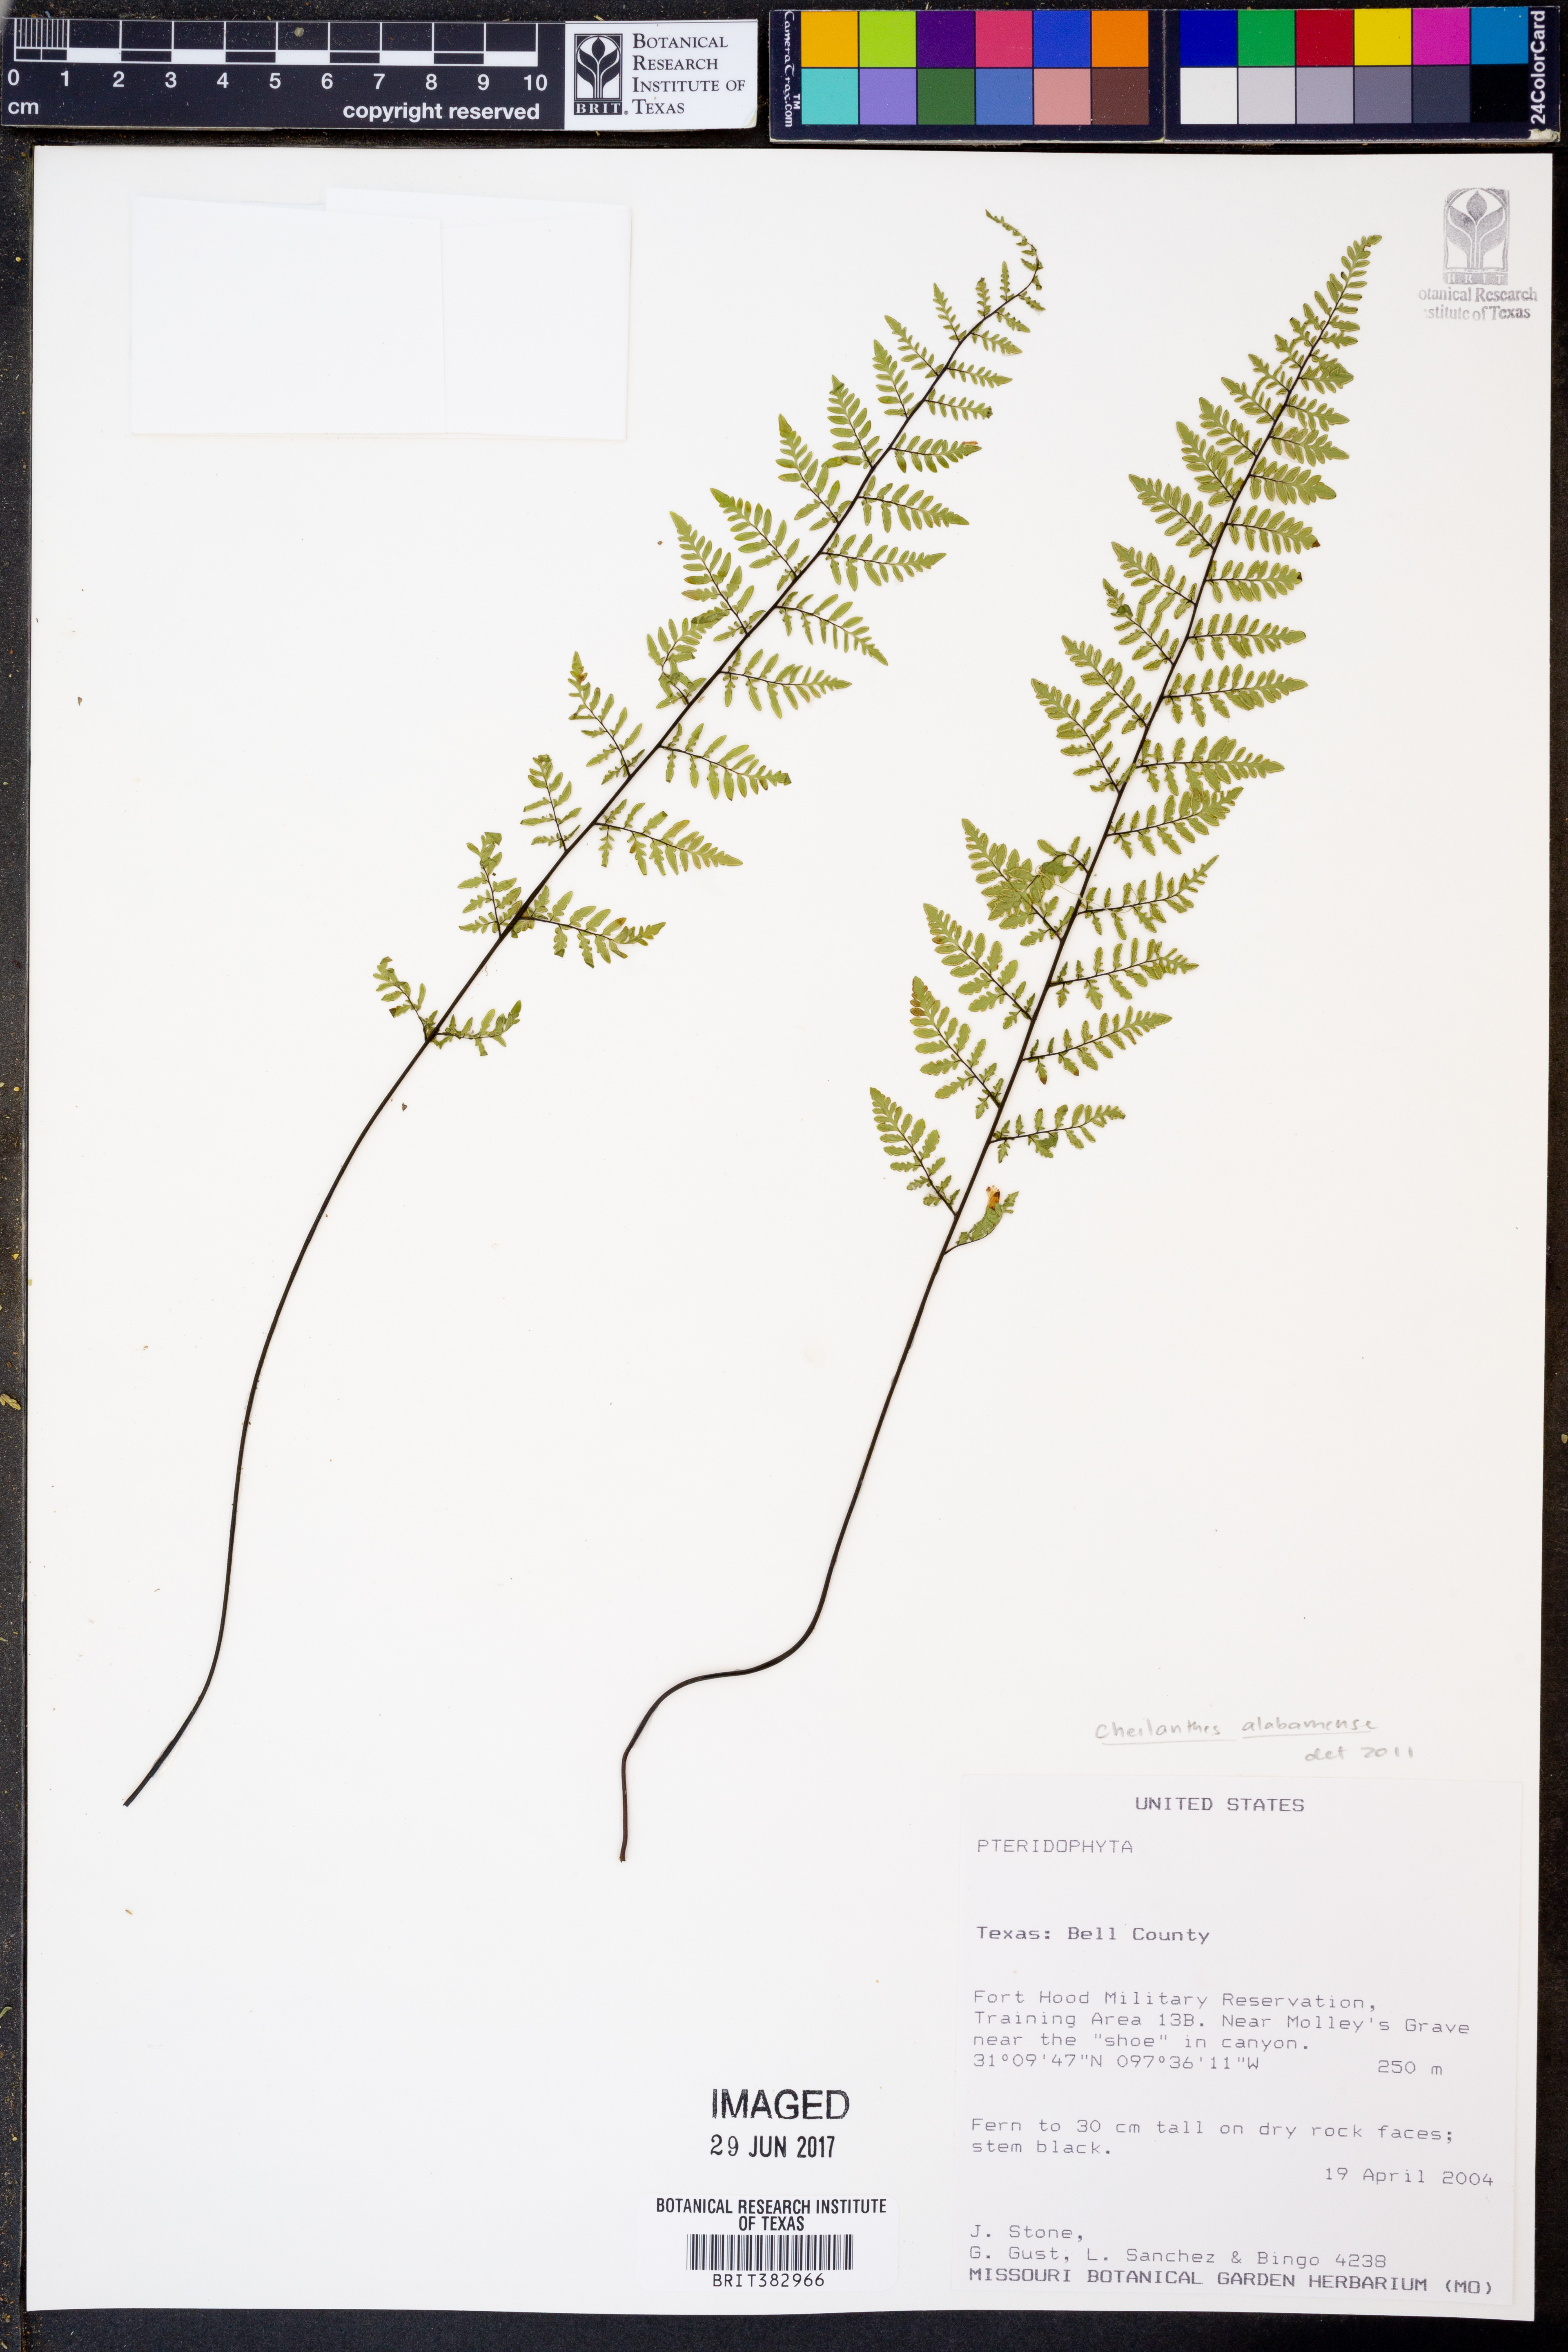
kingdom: Plantae
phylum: Tracheophyta
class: Polypodiopsida
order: Polypodiales
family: Pteridaceae
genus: Myriopteris
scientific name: Myriopteris alabamensis
